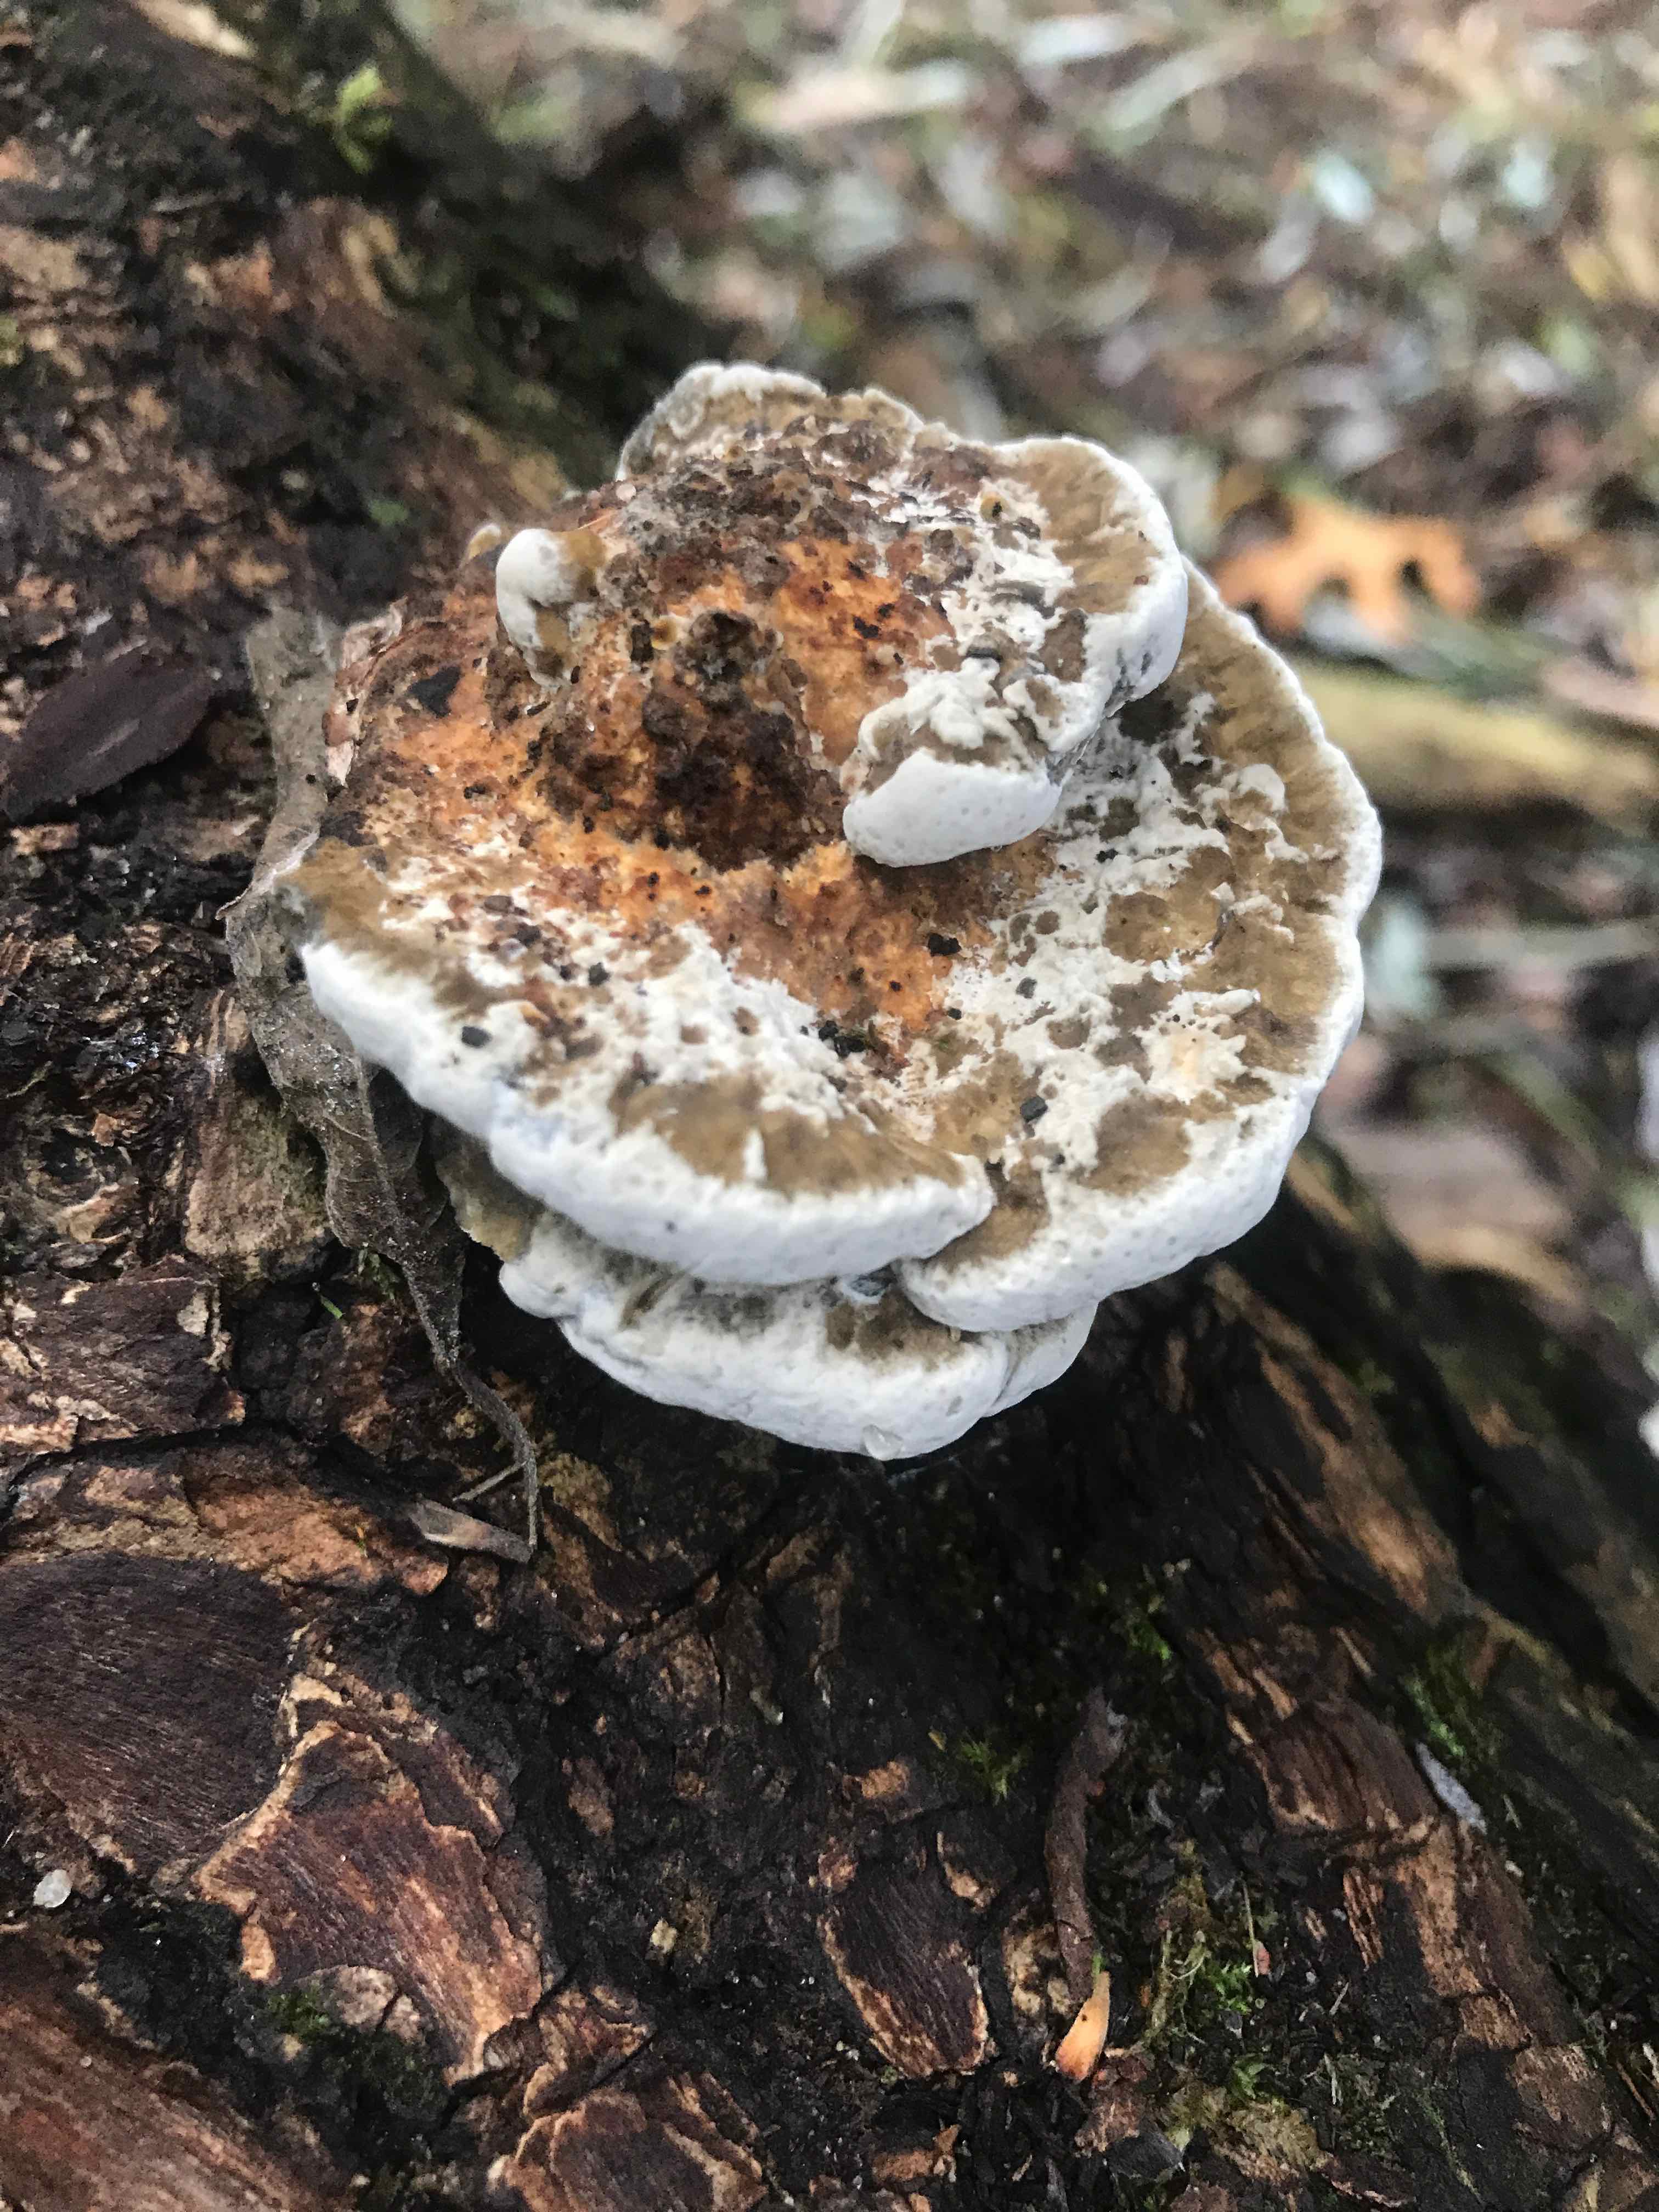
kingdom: Fungi
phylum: Basidiomycota
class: Agaricomycetes
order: Polyporales
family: Polyporaceae
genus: Daedaleopsis
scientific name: Daedaleopsis confragosa
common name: rødmende læderporesvamp
